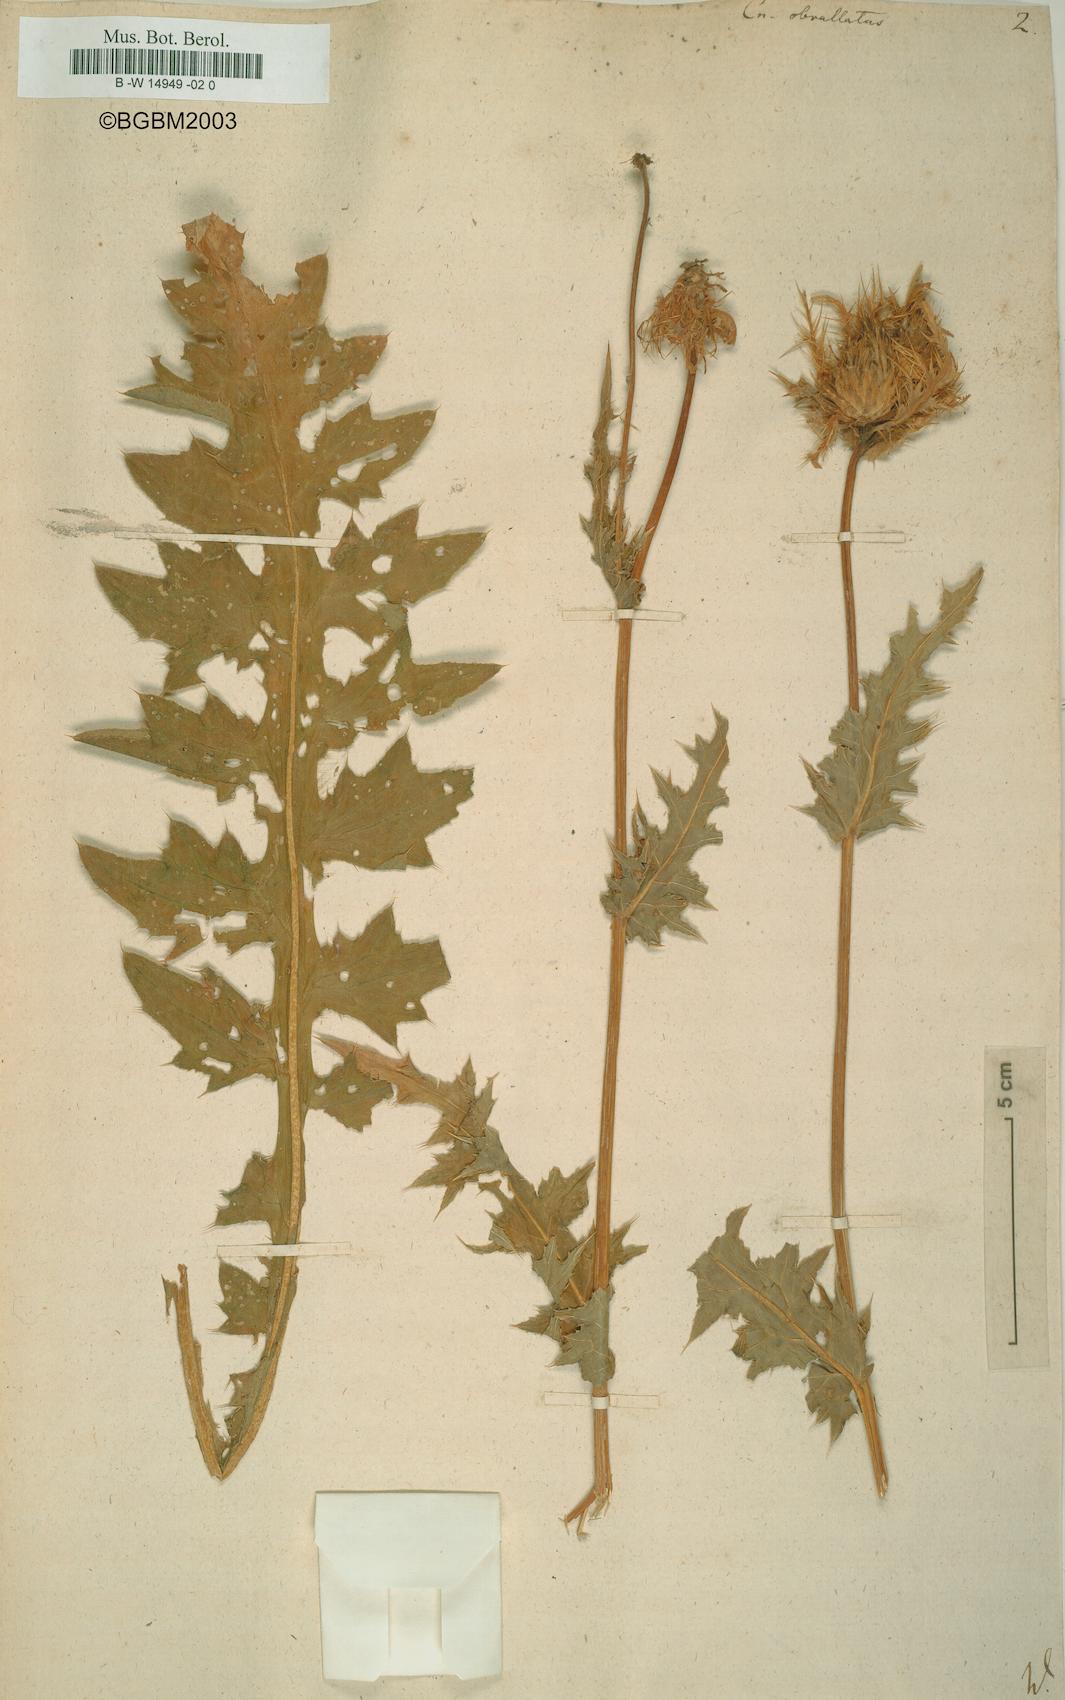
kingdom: Plantae
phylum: Tracheophyta
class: Magnoliopsida
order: Asterales
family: Asteraceae
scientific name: Asteraceae
